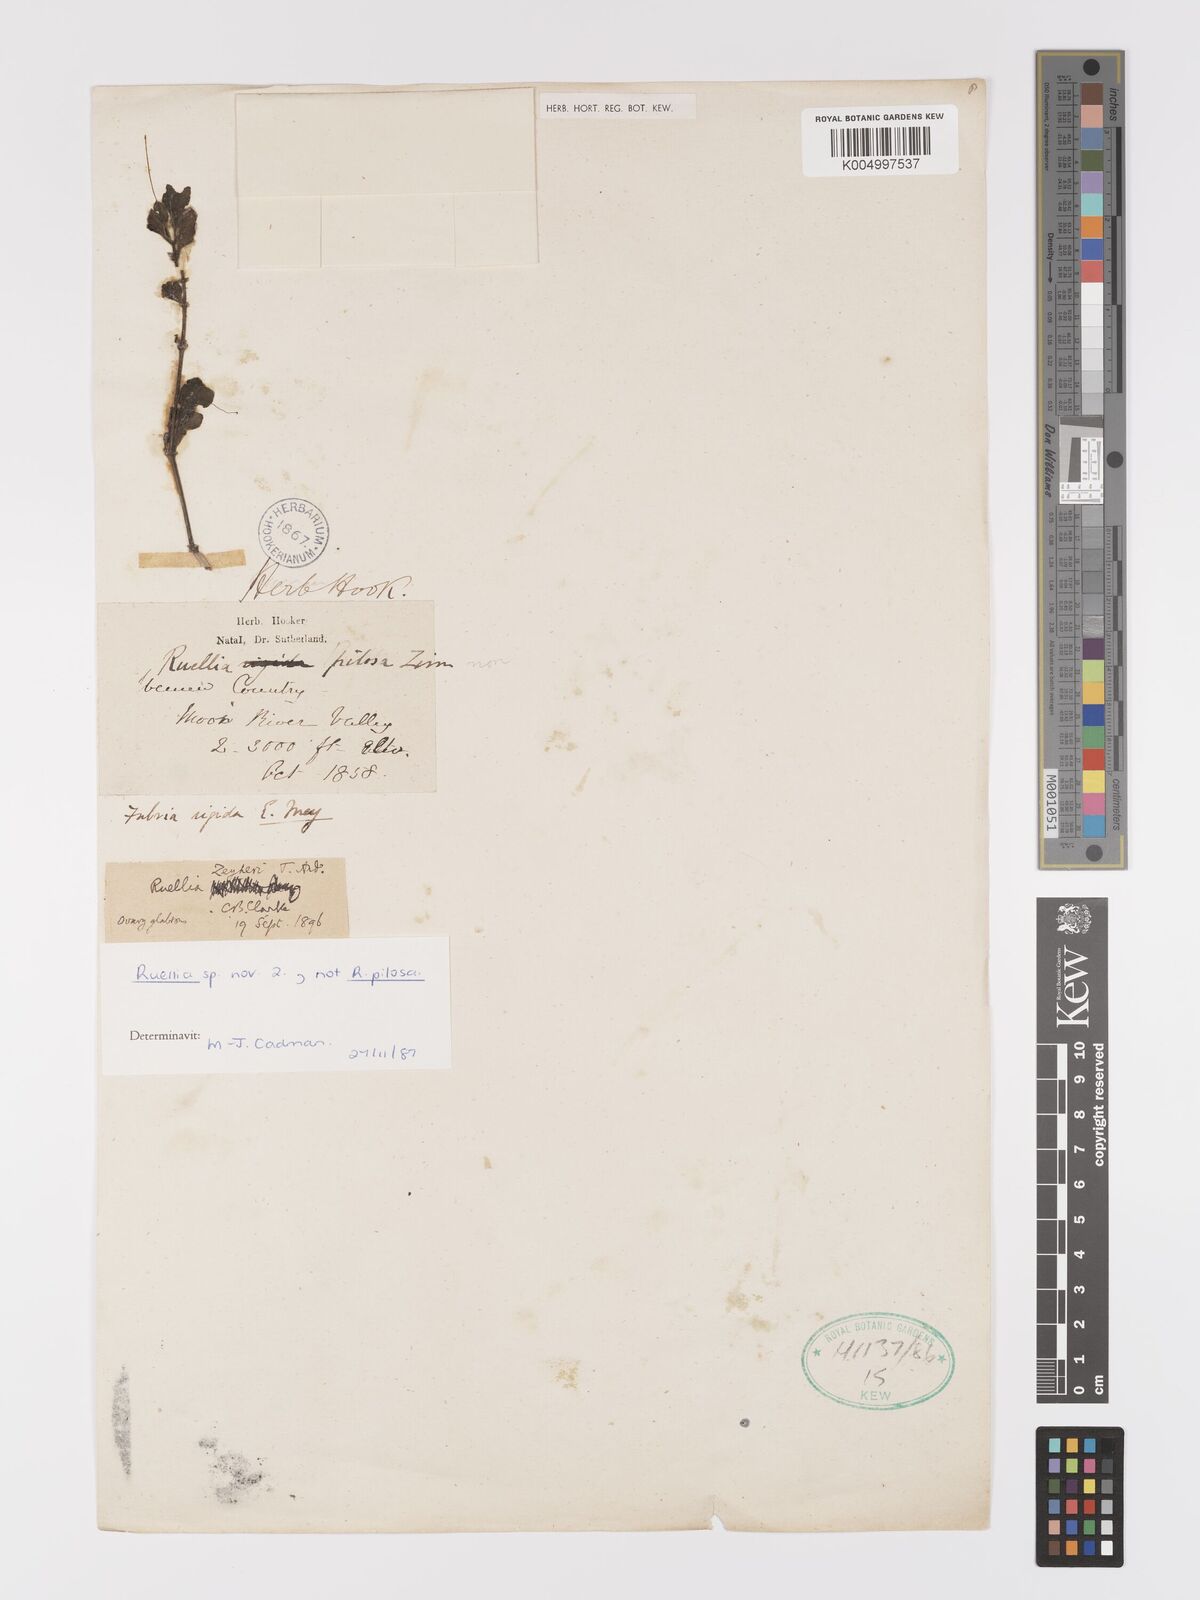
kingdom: Plantae
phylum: Tracheophyta
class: Magnoliopsida
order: Lamiales
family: Acanthaceae
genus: Ruellia
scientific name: Ruellia patula
